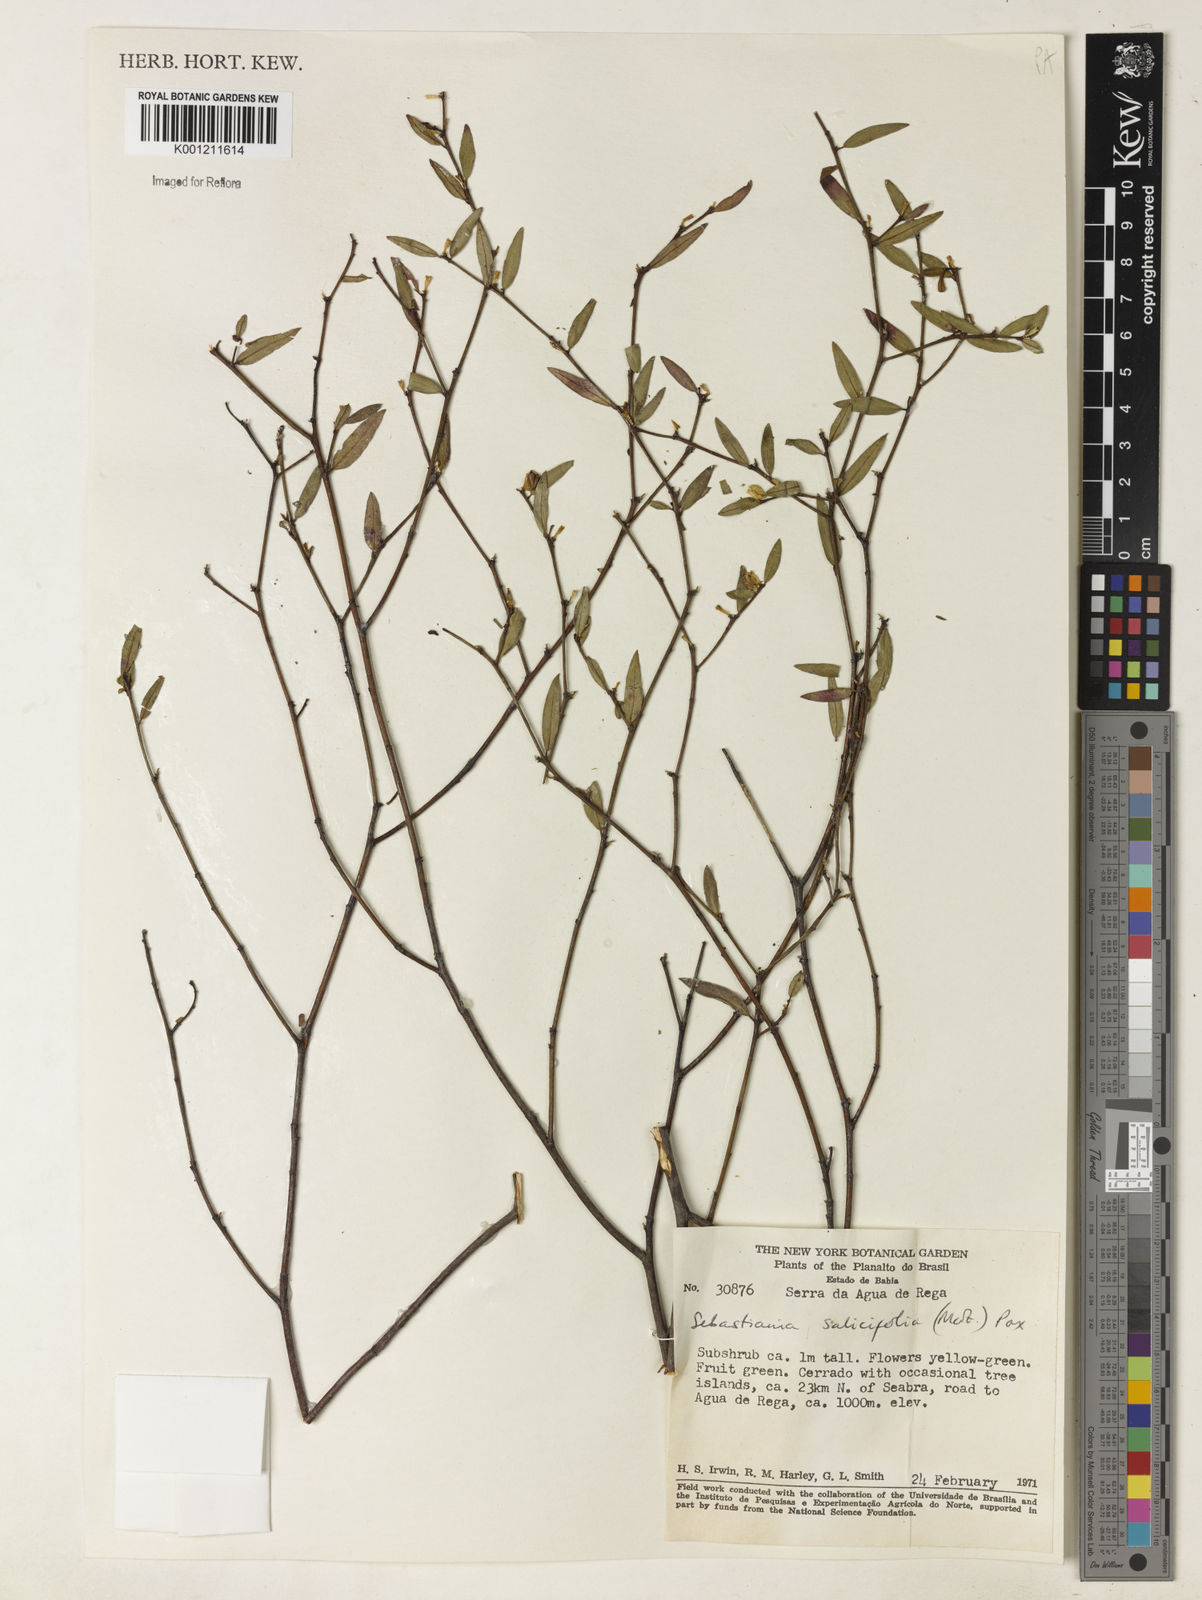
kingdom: Plantae
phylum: Tracheophyta
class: Magnoliopsida
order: Malpighiales
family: Euphorbiaceae
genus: Microstachys
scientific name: Microstachys
